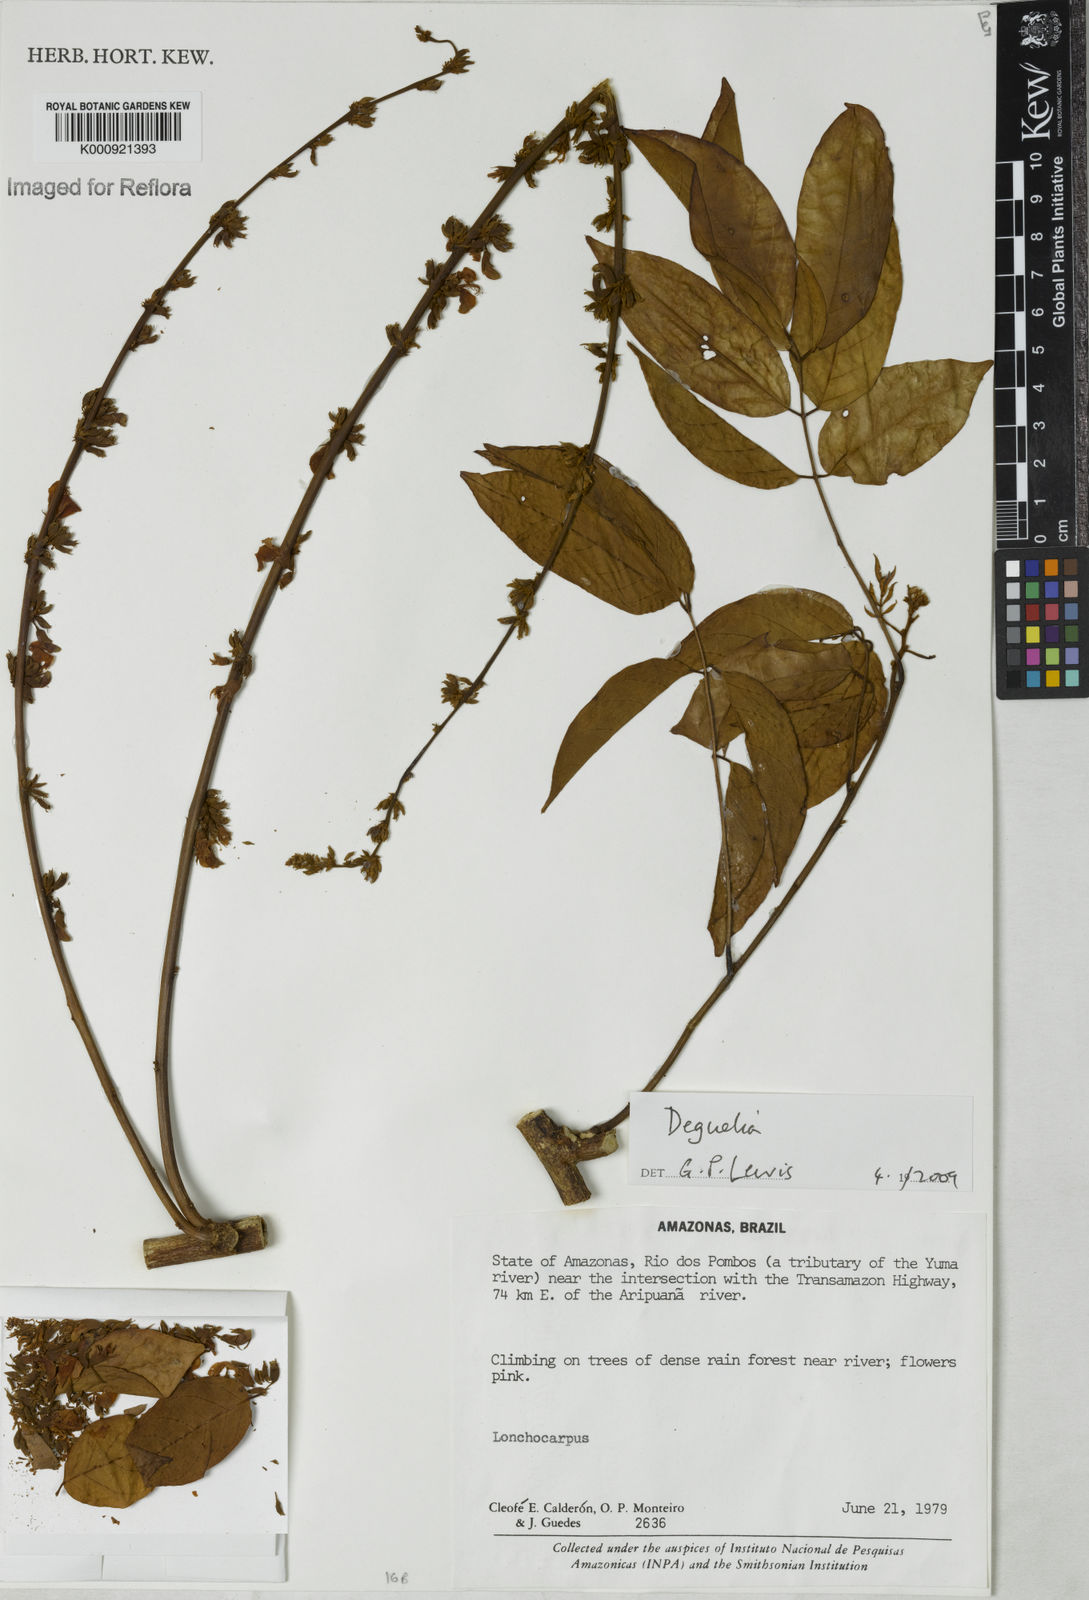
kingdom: Plantae
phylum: Tracheophyta
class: Magnoliopsida
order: Fabales
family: Fabaceae
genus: Deguelia
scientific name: Deguelia
